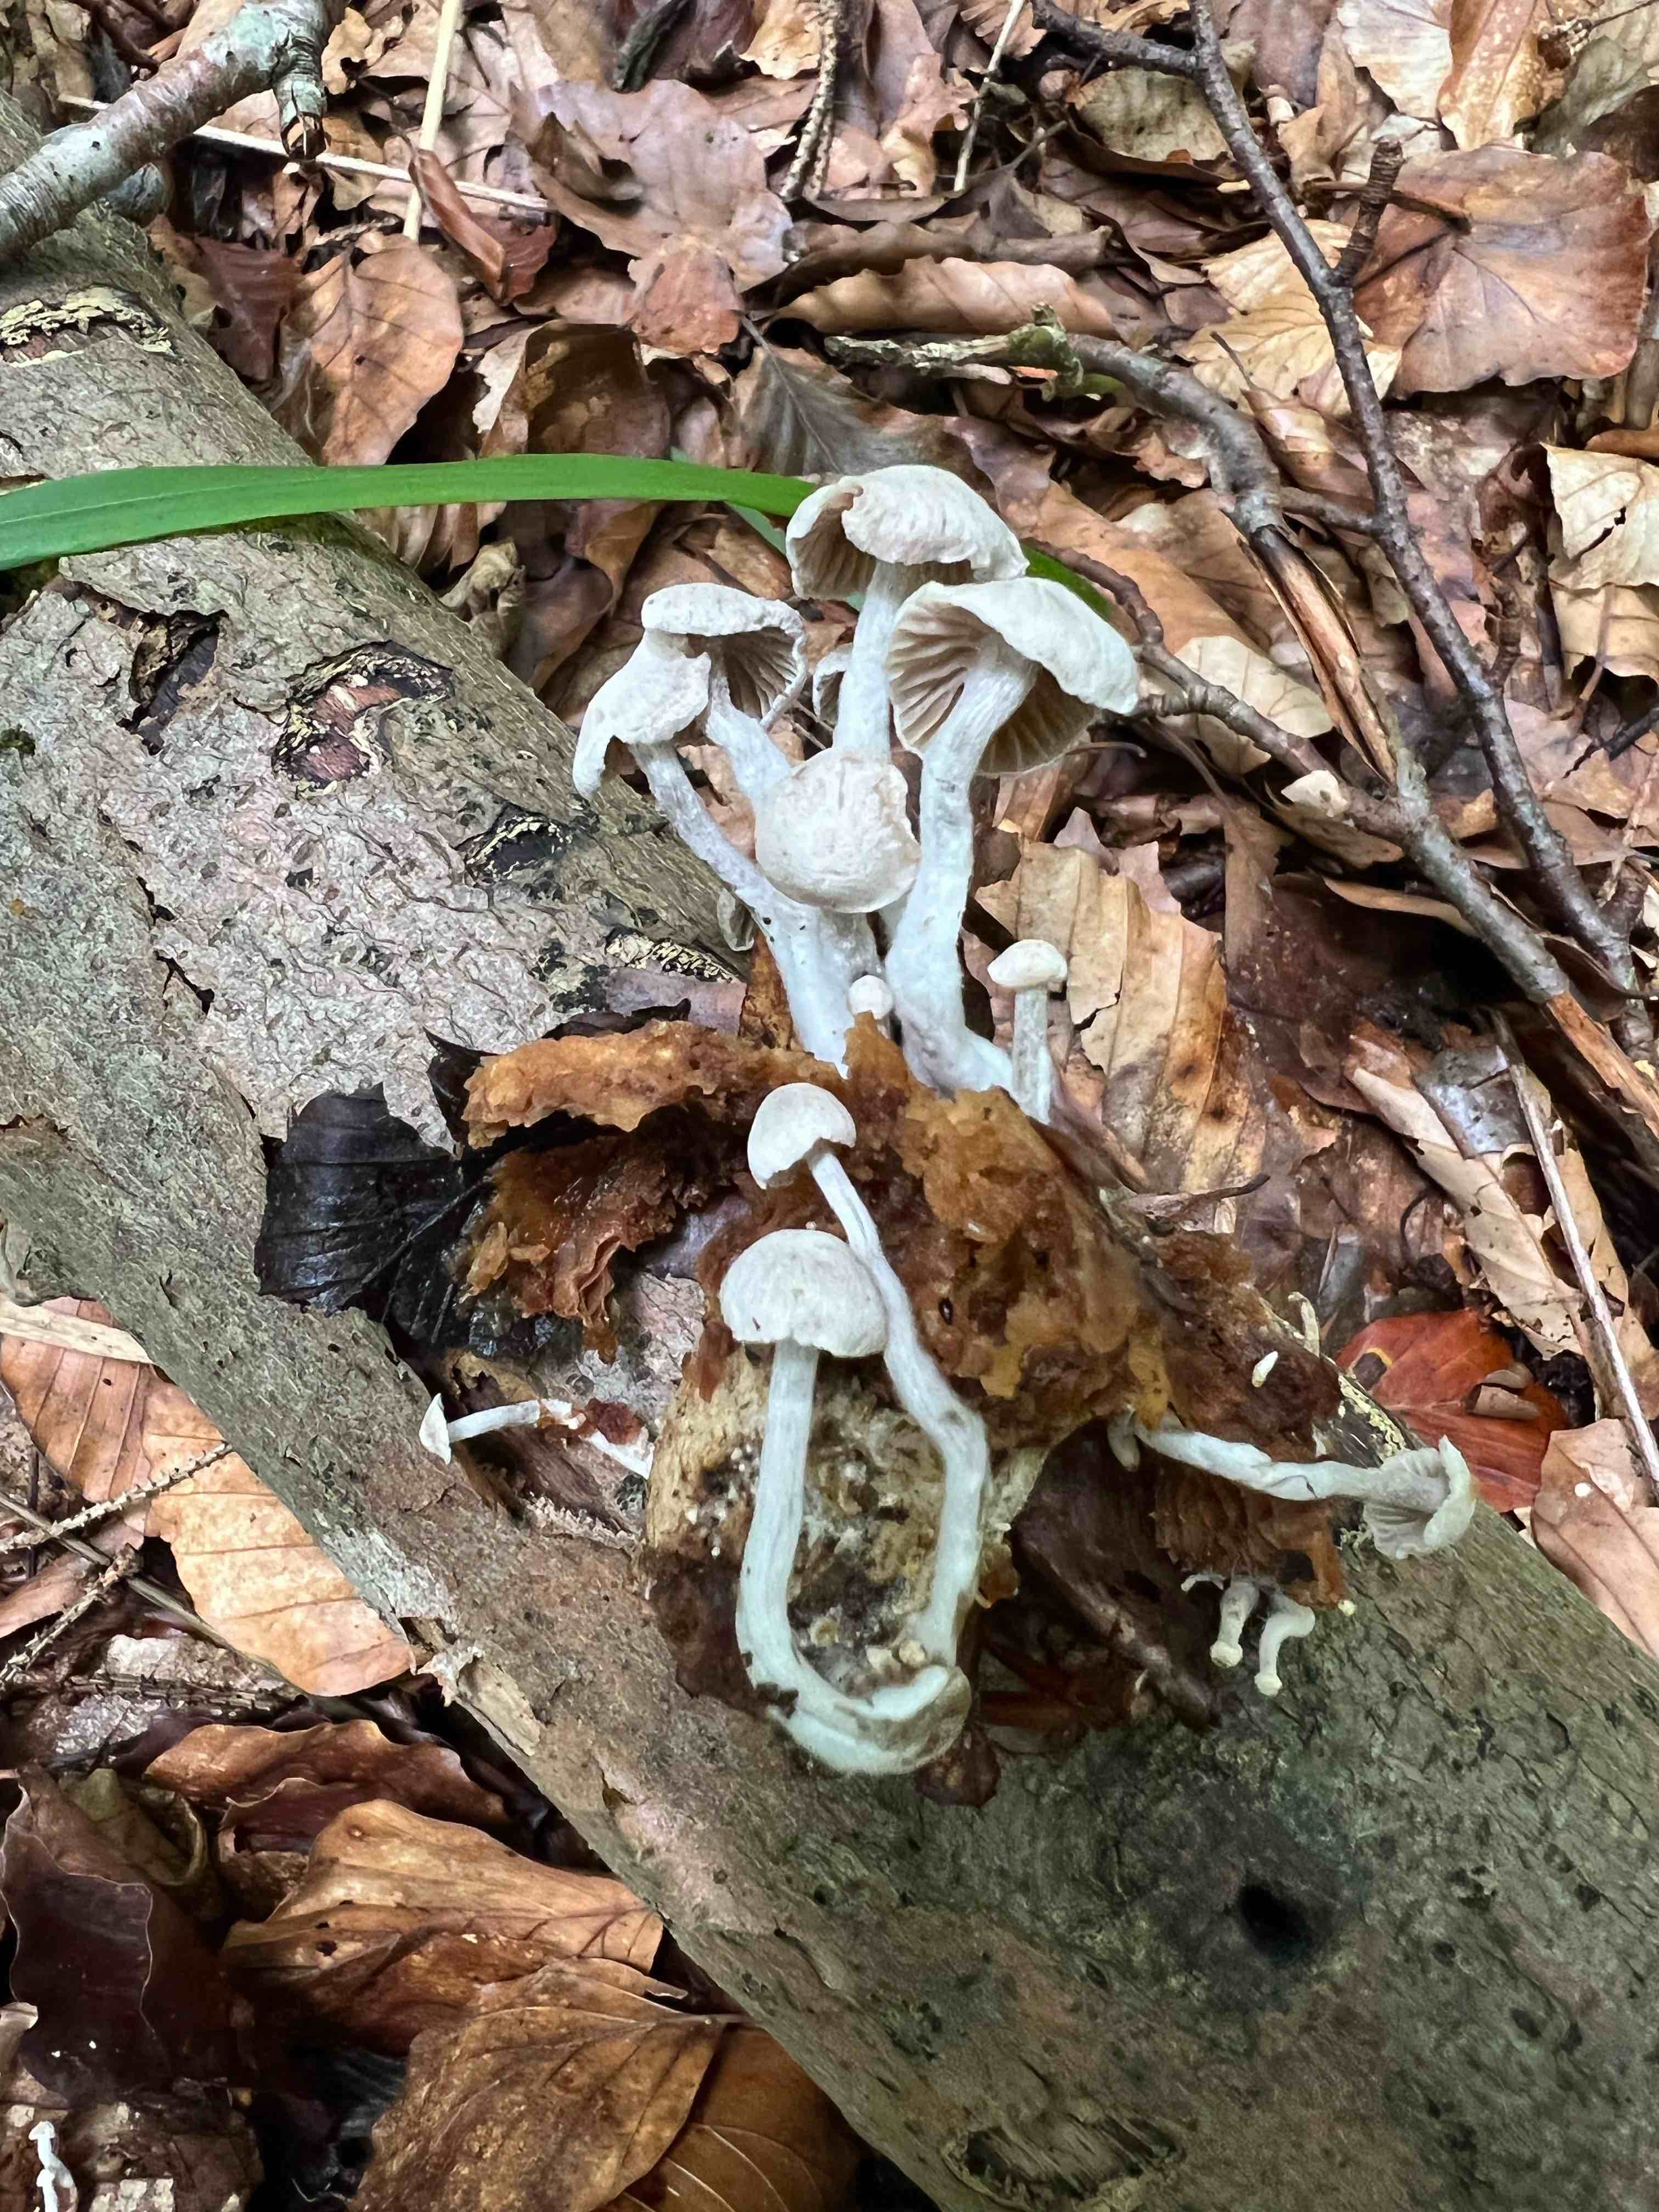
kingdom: Fungi
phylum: Basidiomycota
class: Agaricomycetes
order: Agaricales
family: Lyophyllaceae
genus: Asterophora
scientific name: Asterophora parasitica
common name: grå snyltehat
